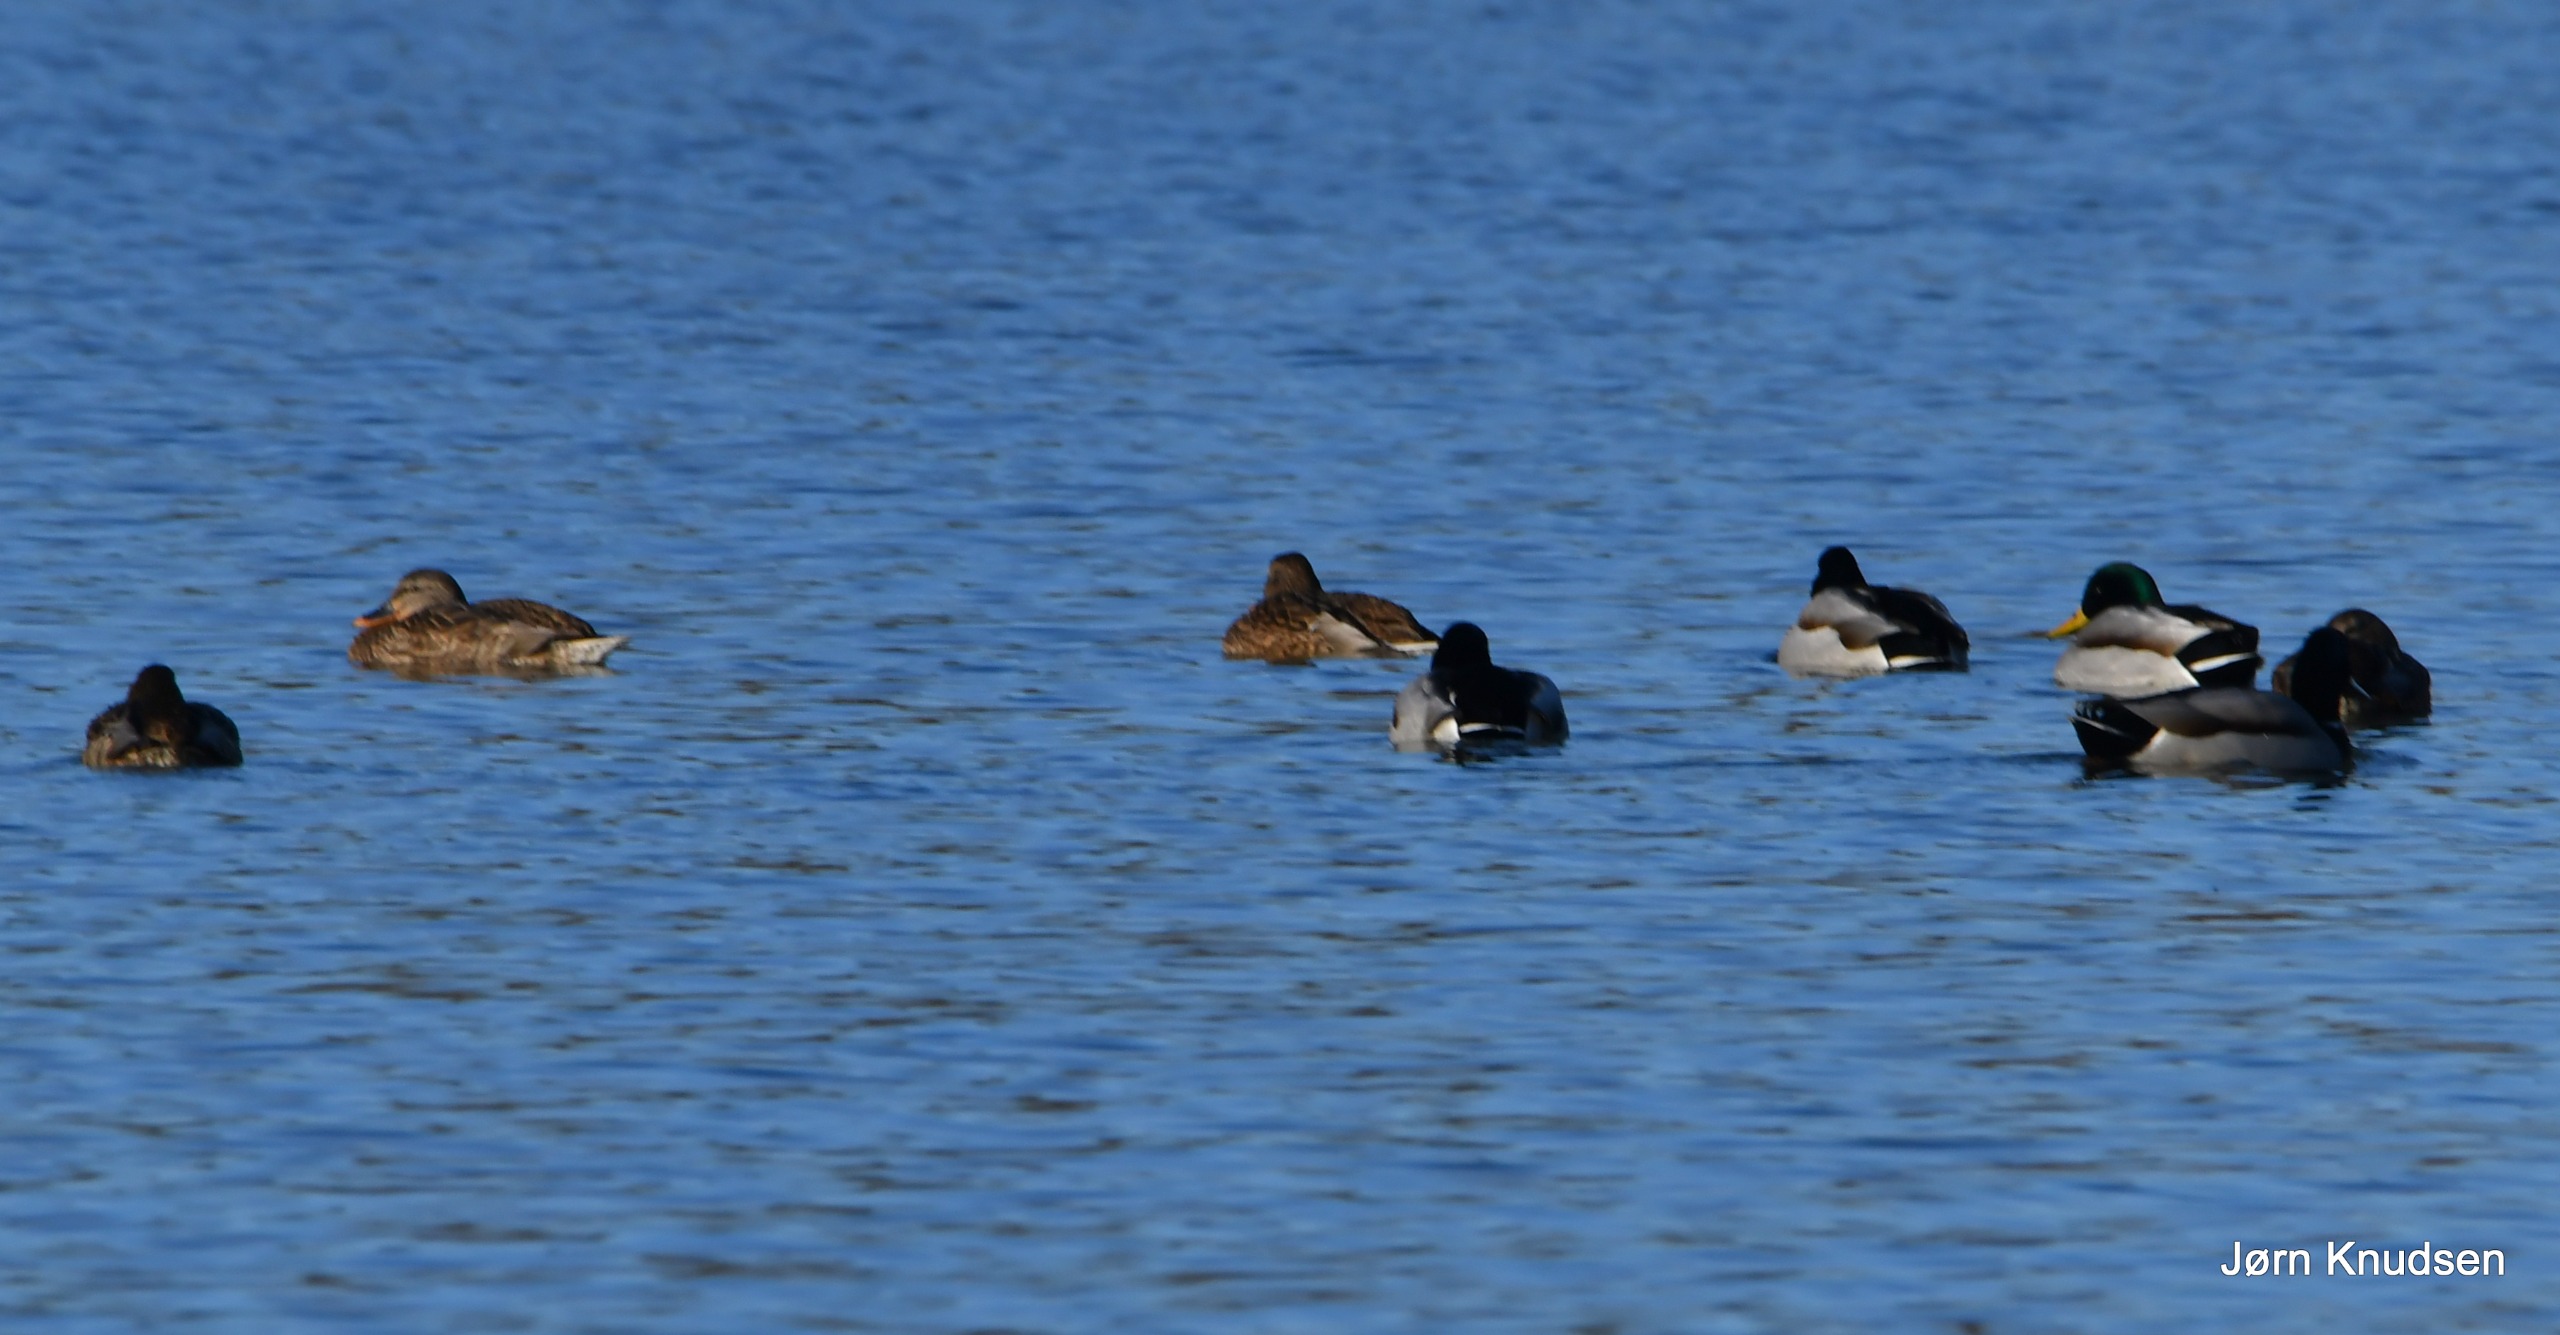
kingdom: Animalia
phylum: Chordata
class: Aves
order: Anseriformes
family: Anatidae
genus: Anas
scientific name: Anas platyrhynchos
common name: Gråand
